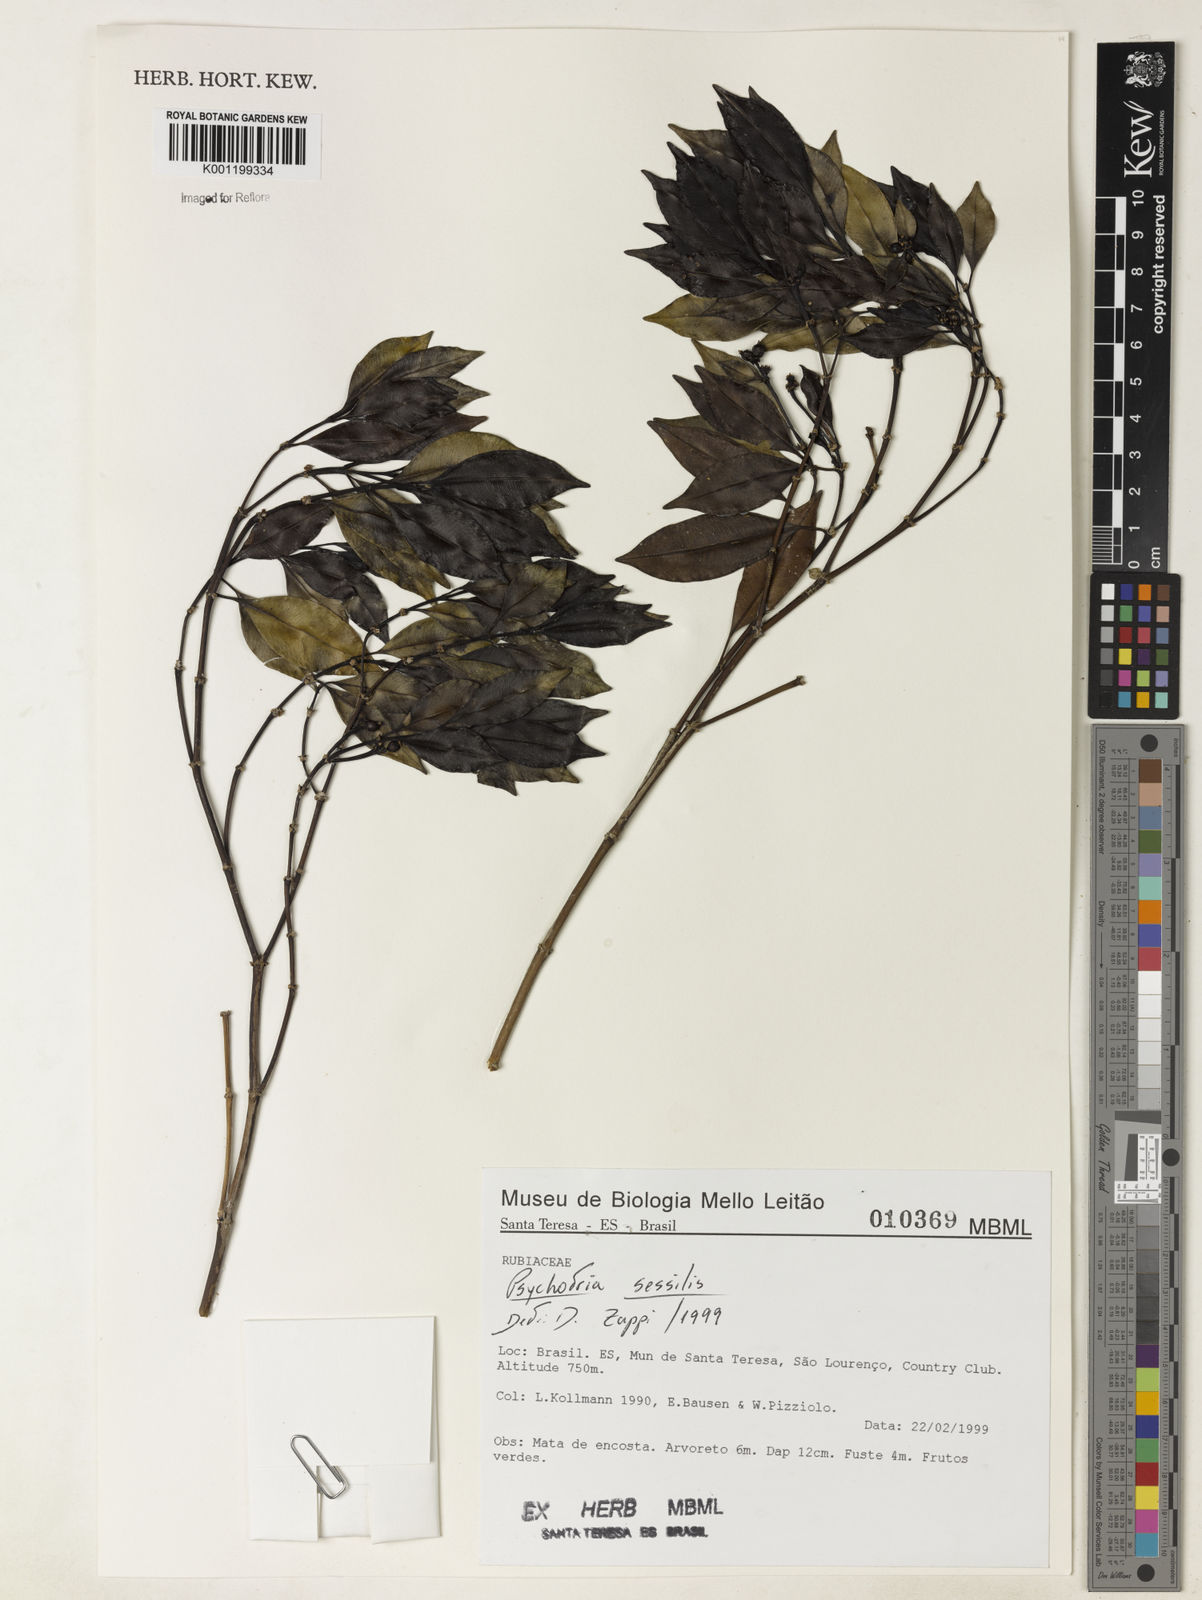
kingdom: Plantae
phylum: Tracheophyta
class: Magnoliopsida
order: Gentianales
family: Rubiaceae
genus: Rudgea
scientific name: Rudgea sessilis
